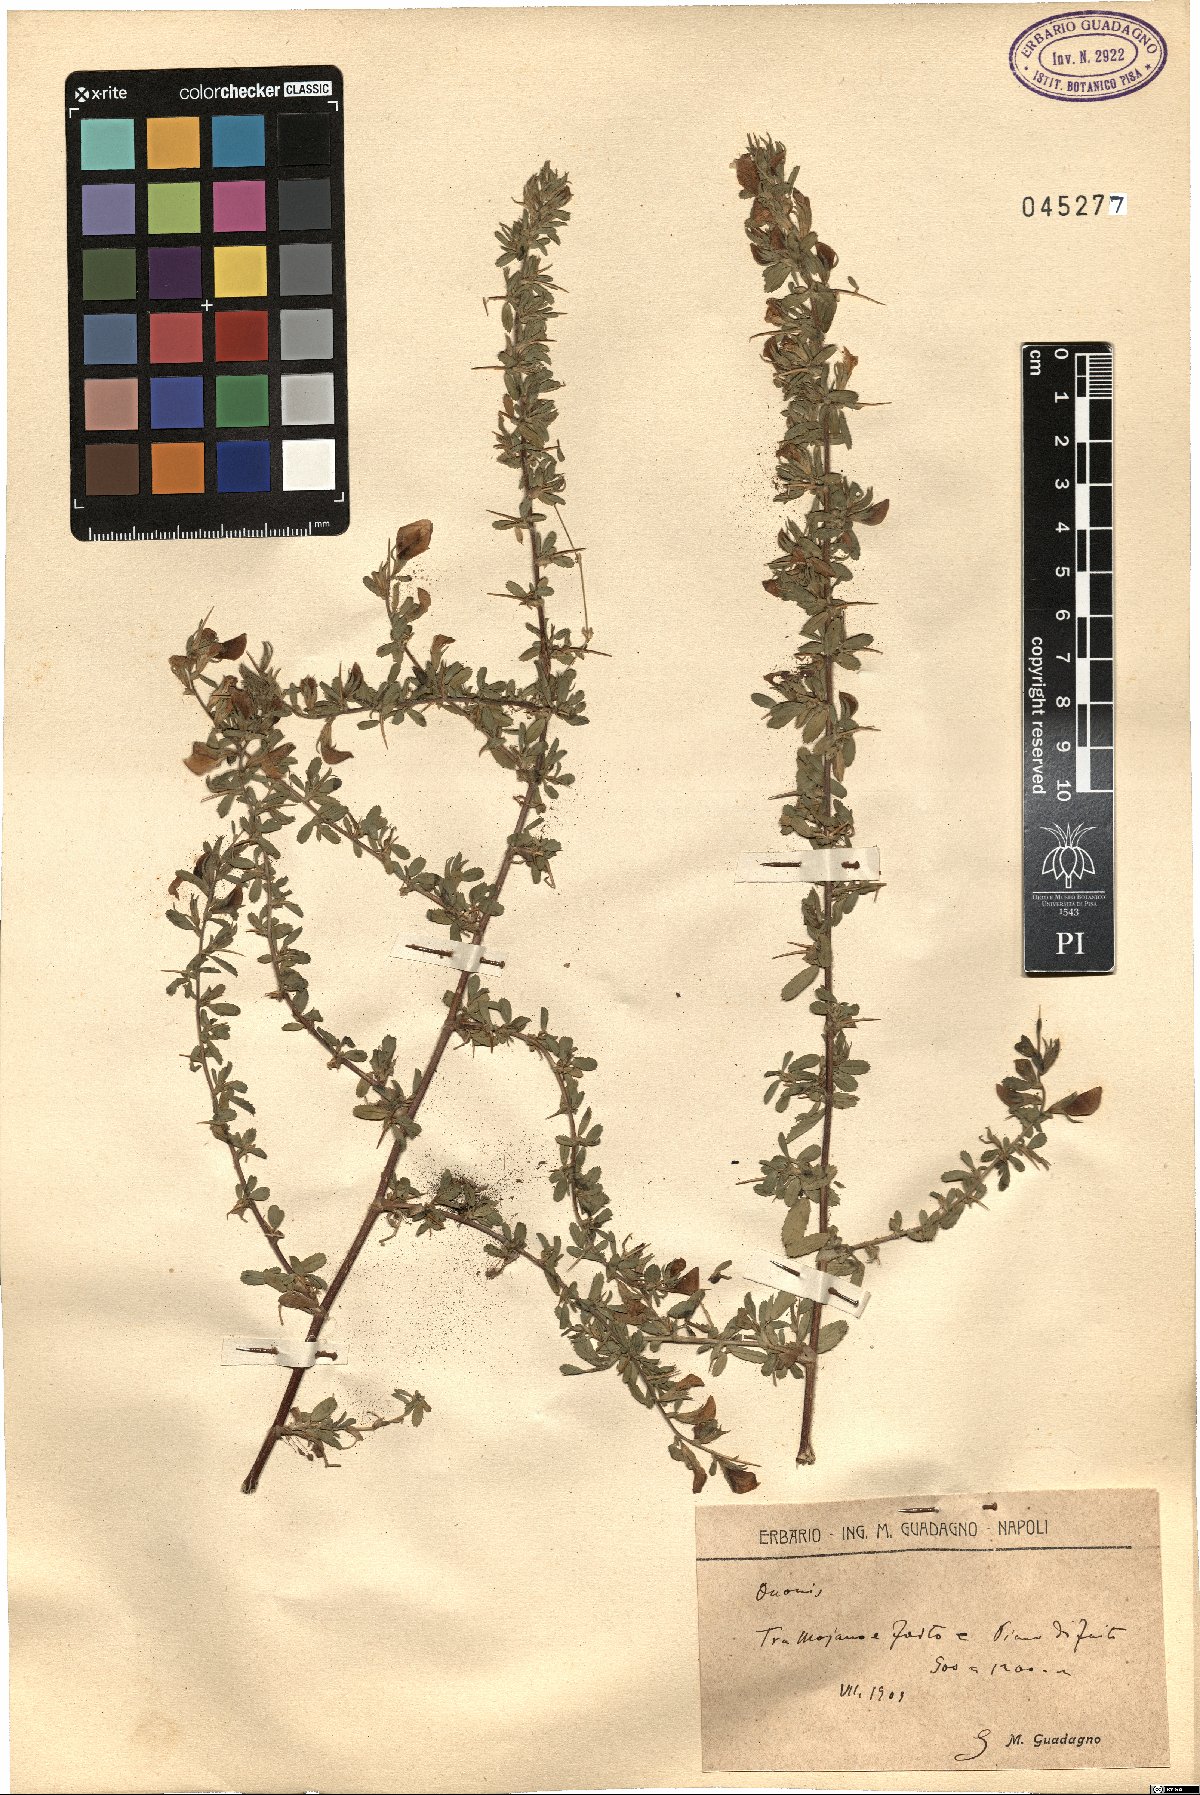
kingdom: Plantae
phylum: Tracheophyta
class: Magnoliopsida
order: Fabales
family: Fabaceae
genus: Ononis
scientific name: Ononis
